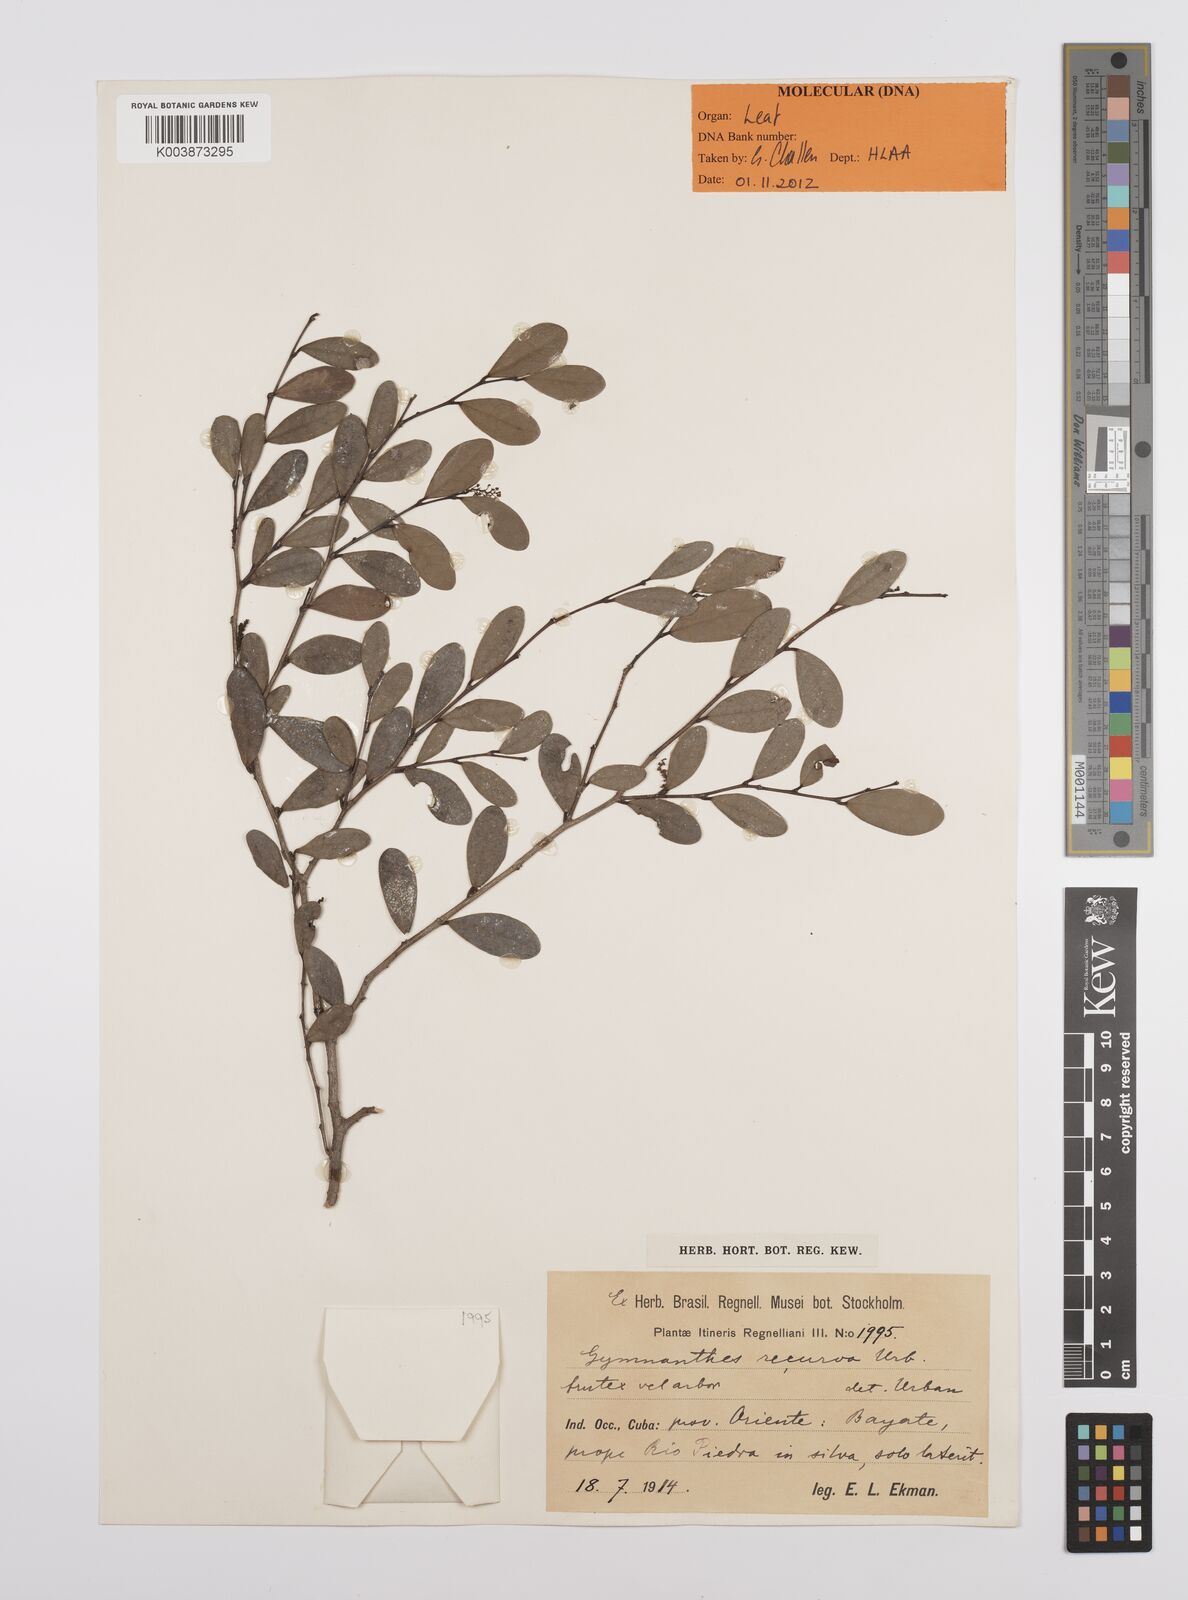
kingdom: Plantae
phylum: Tracheophyta
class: Magnoliopsida
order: Malpighiales
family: Euphorbiaceae
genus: Gymnanthes
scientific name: Gymnanthes recurva
